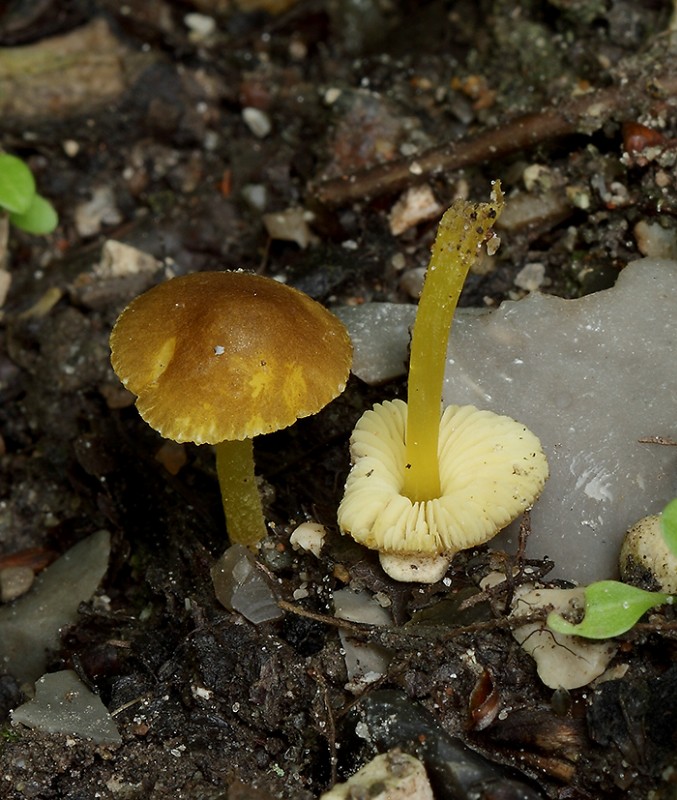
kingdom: Fungi
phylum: Basidiomycota
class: Agaricomycetes
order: Agaricales
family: Pluteaceae
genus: Pluteus
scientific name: Pluteus romellii
